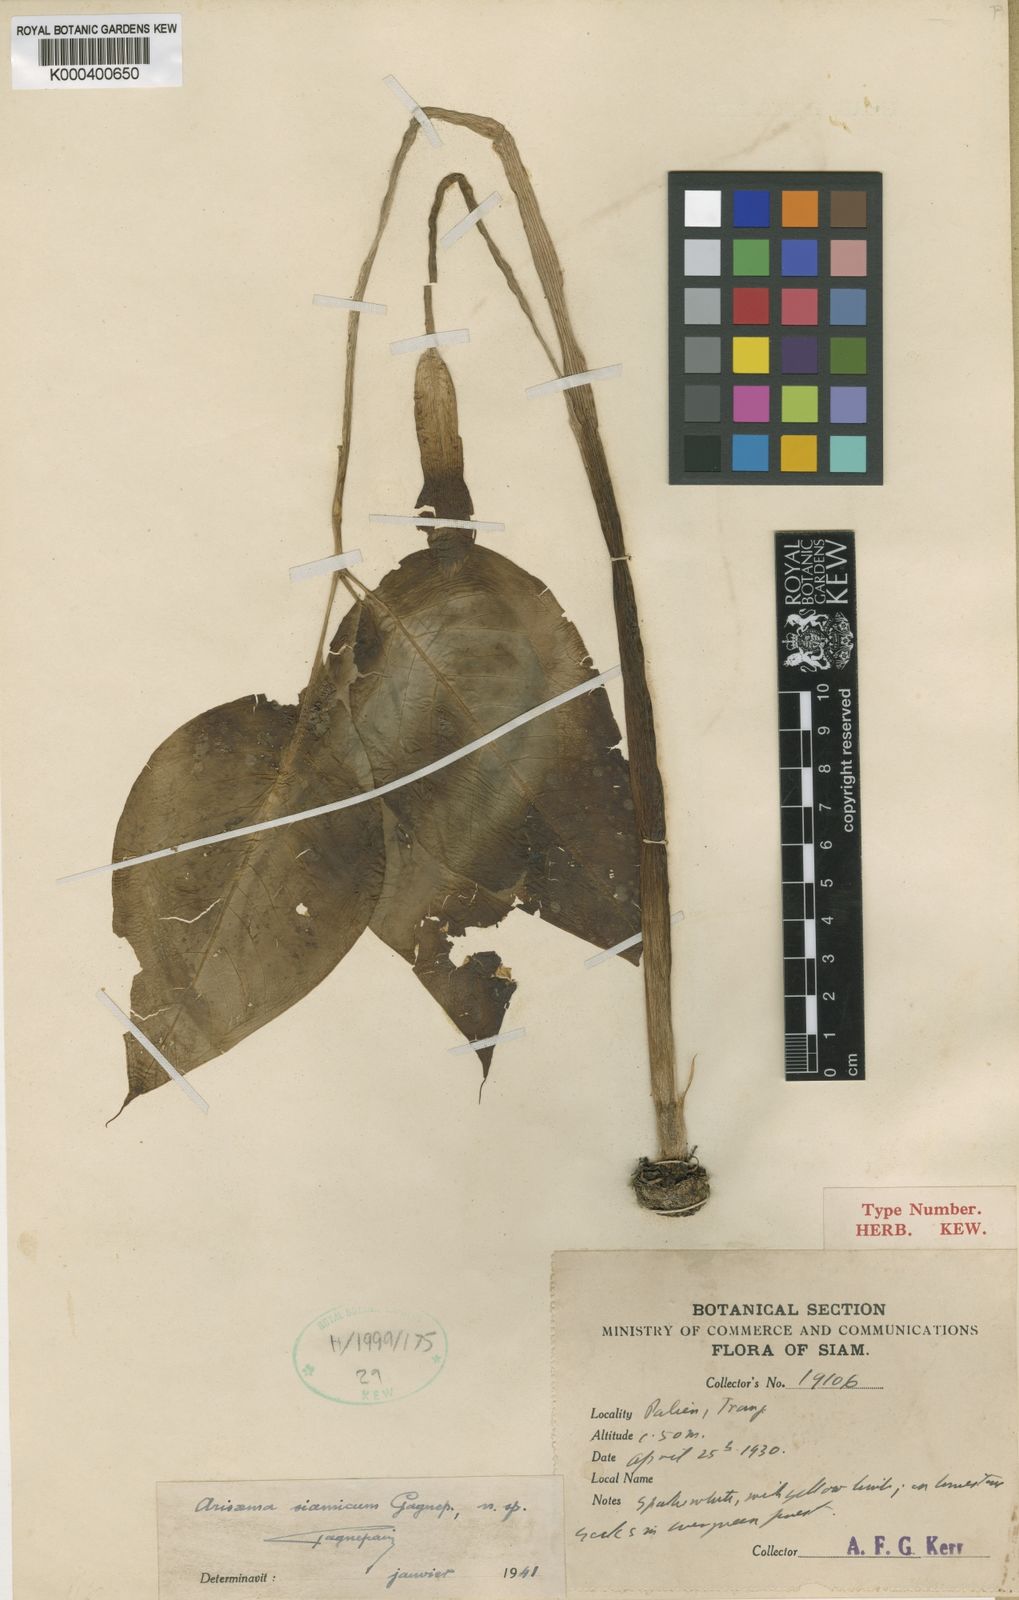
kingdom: Plantae
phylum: Tracheophyta
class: Liliopsida
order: Alismatales
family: Araceae
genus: Arisaema
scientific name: Arisaema siamicum
